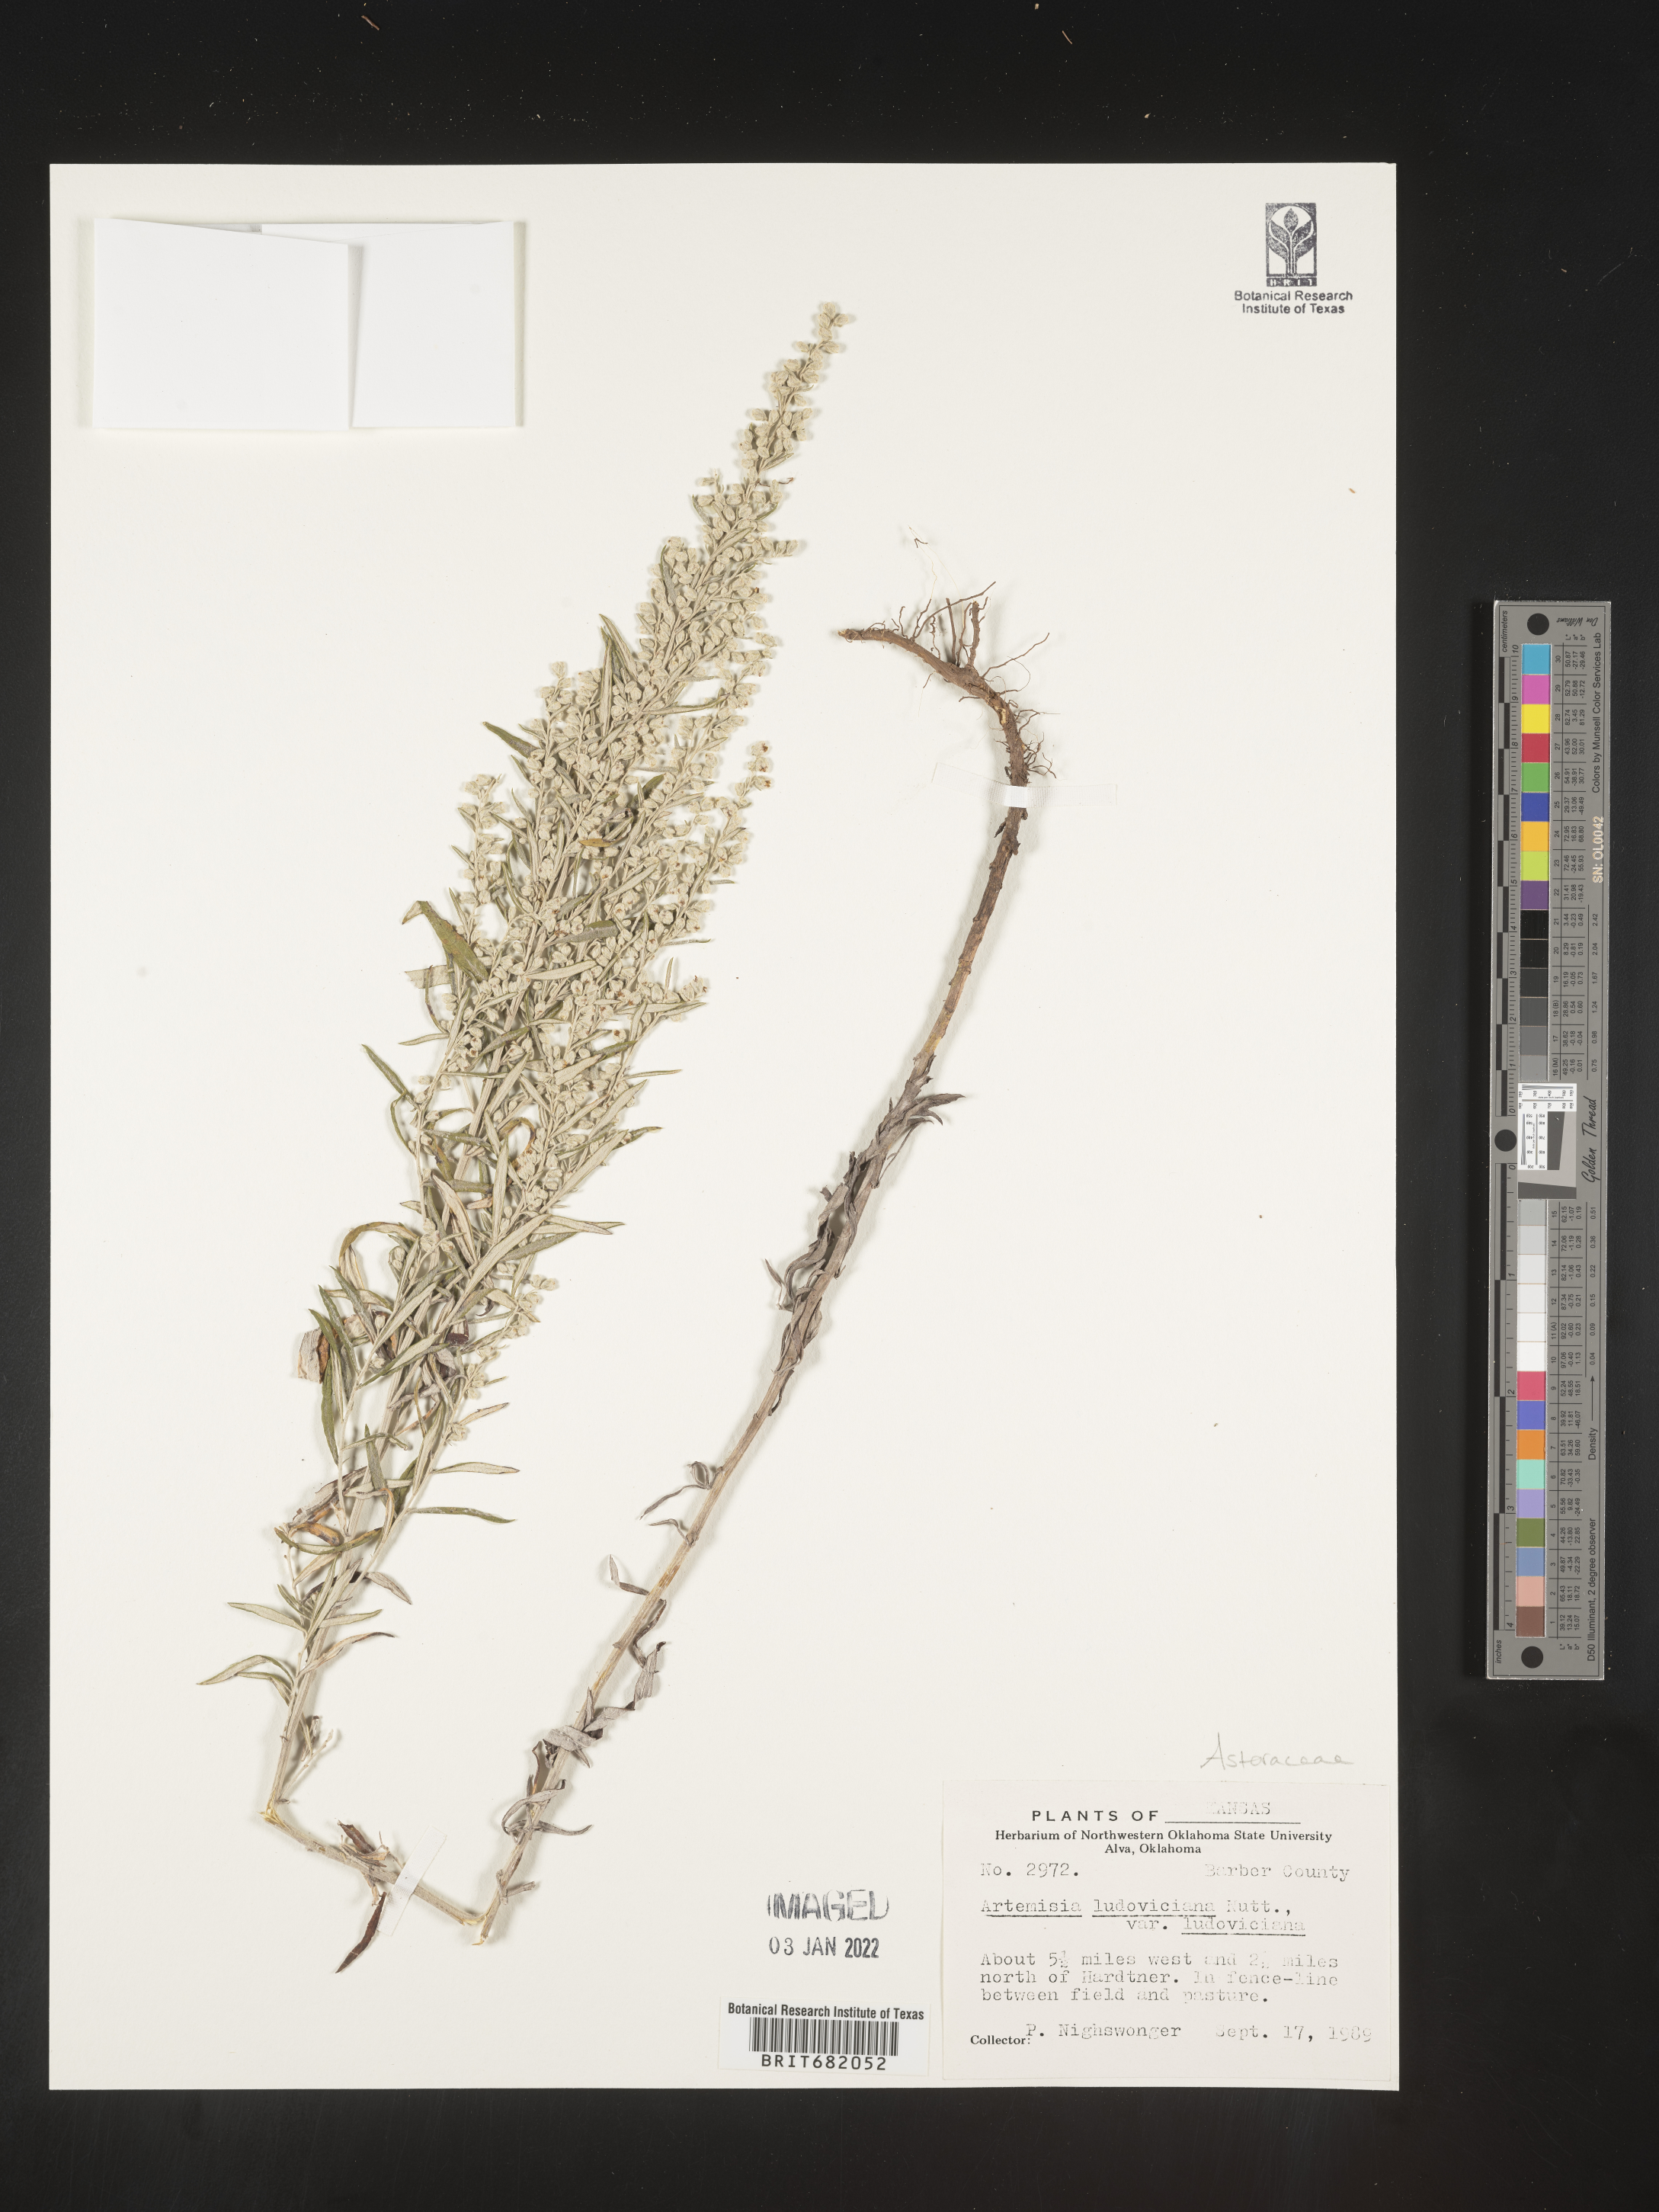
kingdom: Plantae
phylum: Tracheophyta
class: Magnoliopsida
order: Asterales
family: Asteraceae
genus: Artemisia
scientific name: Artemisia ludoviciana
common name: Western mugwort
